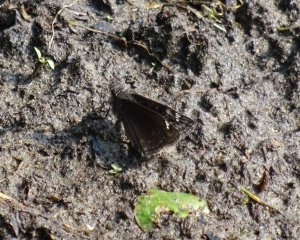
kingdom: Animalia
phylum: Arthropoda
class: Insecta
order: Lepidoptera
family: Hesperiidae
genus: Gesta
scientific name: Gesta
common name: Wild Indigo Duskywing
